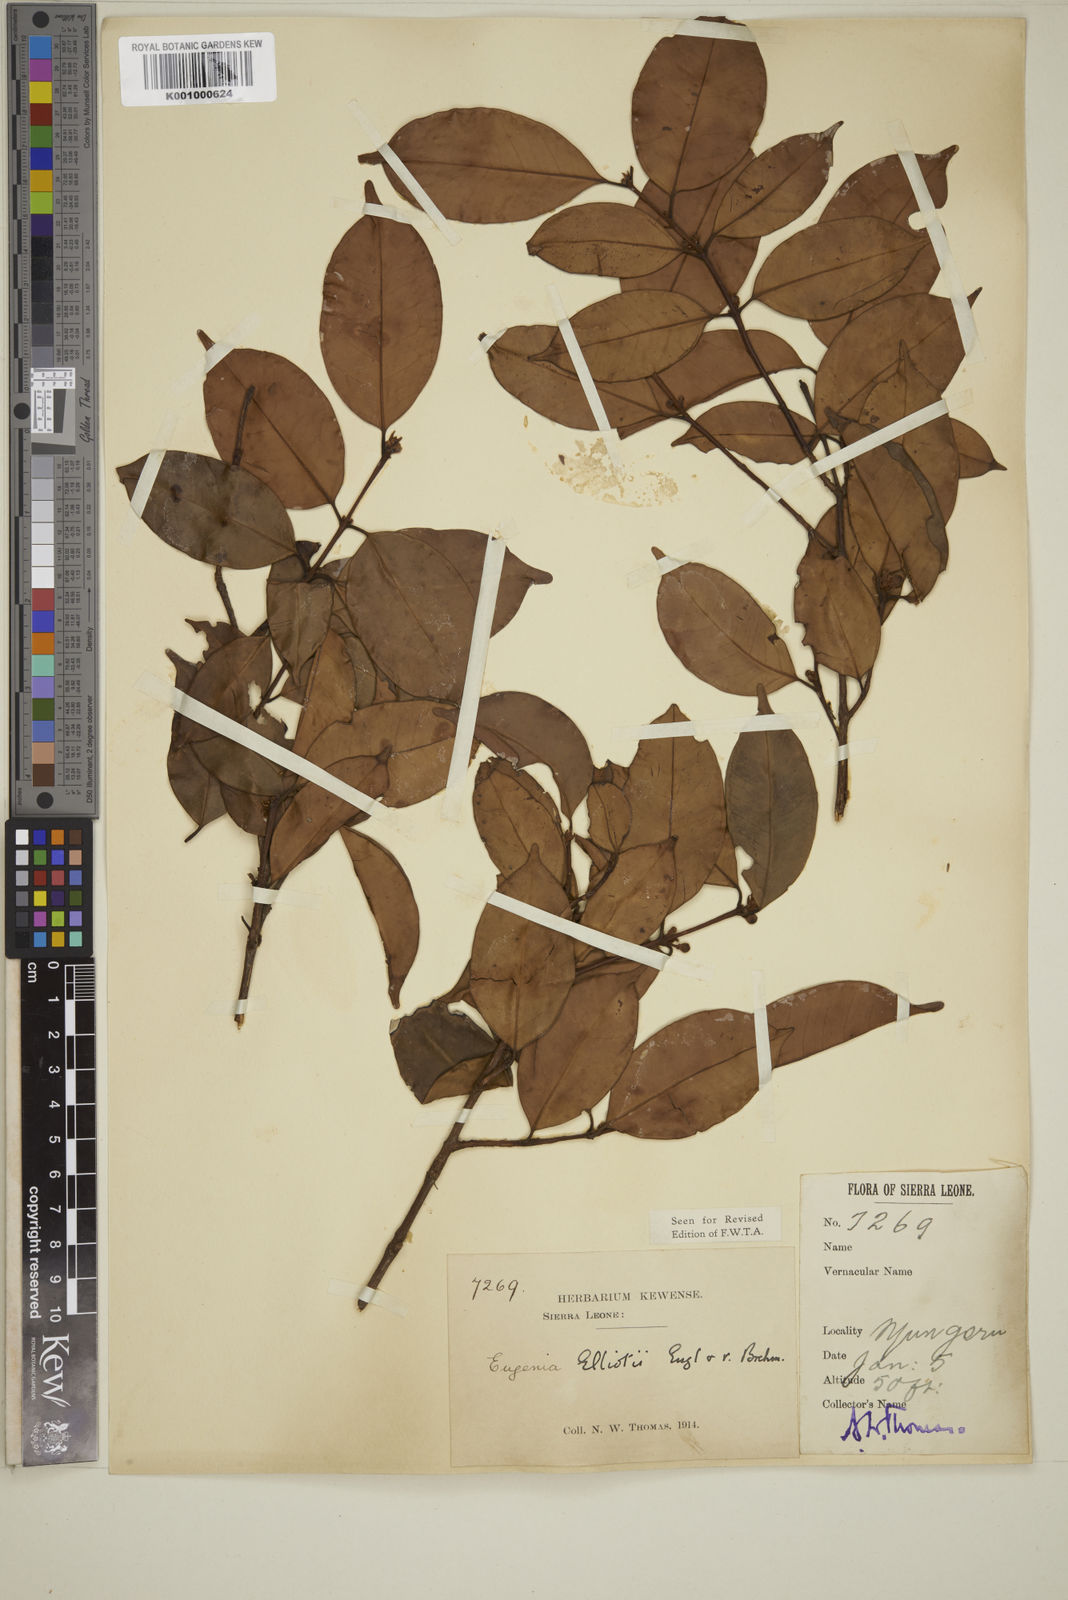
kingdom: Plantae
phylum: Tracheophyta
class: Magnoliopsida
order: Myrtales
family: Myrtaceae
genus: Eugenia
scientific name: Eugenia elliotii
